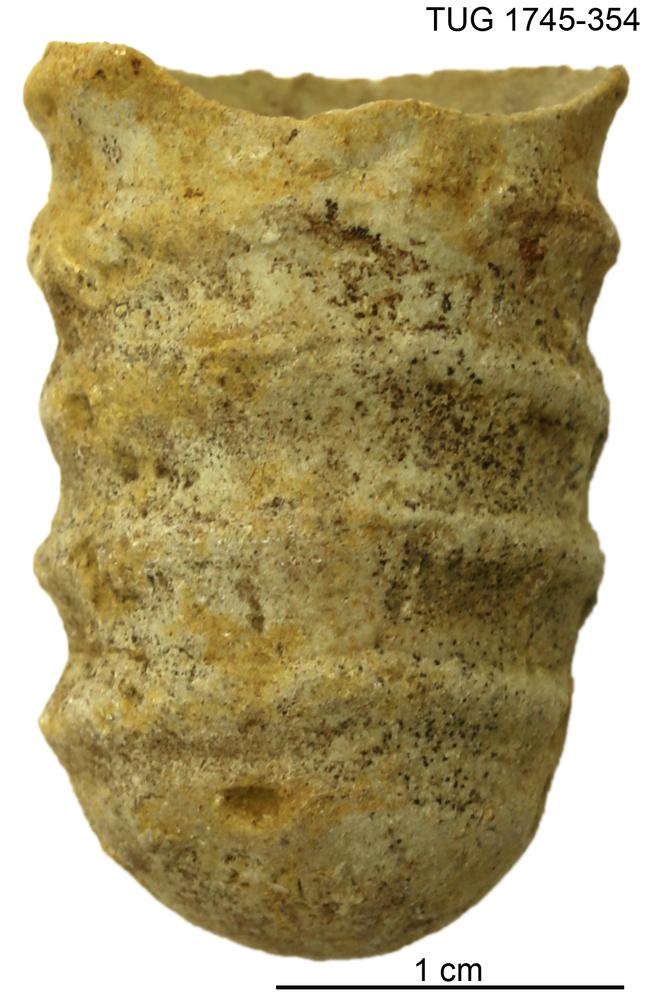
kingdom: Animalia
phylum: Mollusca
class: Cephalopoda
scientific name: Cephalopoda
